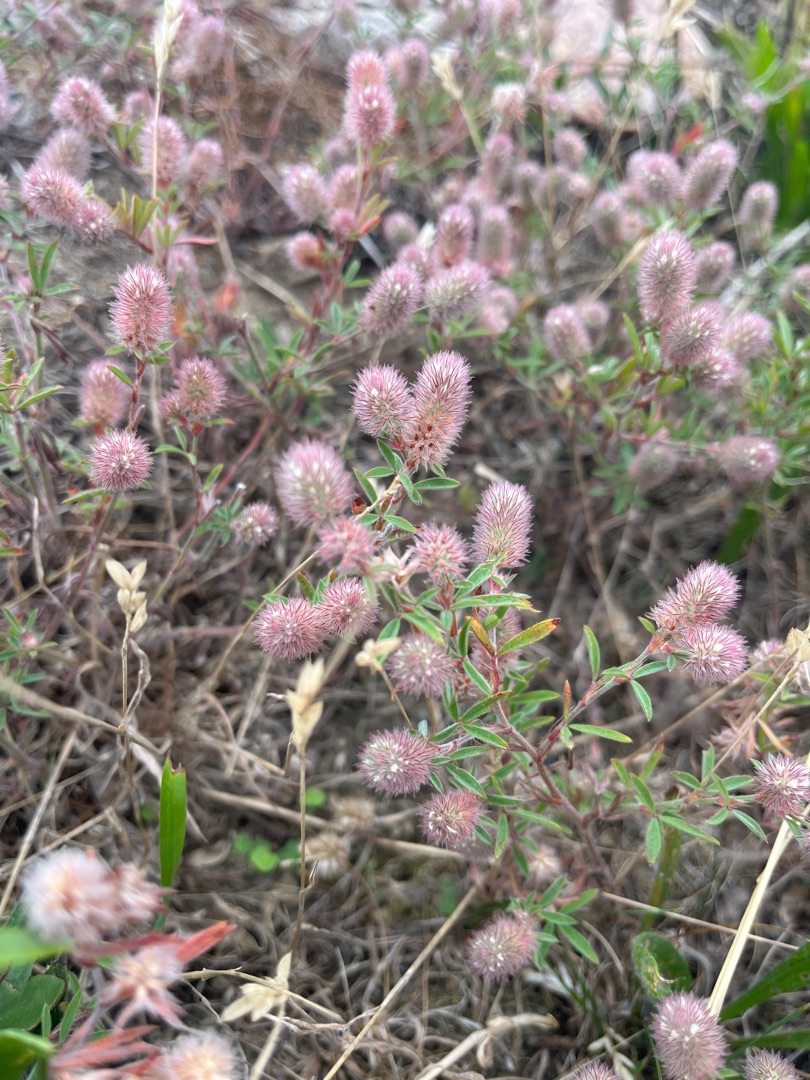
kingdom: Plantae
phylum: Tracheophyta
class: Magnoliopsida
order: Fabales
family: Fabaceae
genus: Trifolium
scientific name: Trifolium arvense
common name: Hare-kløver
